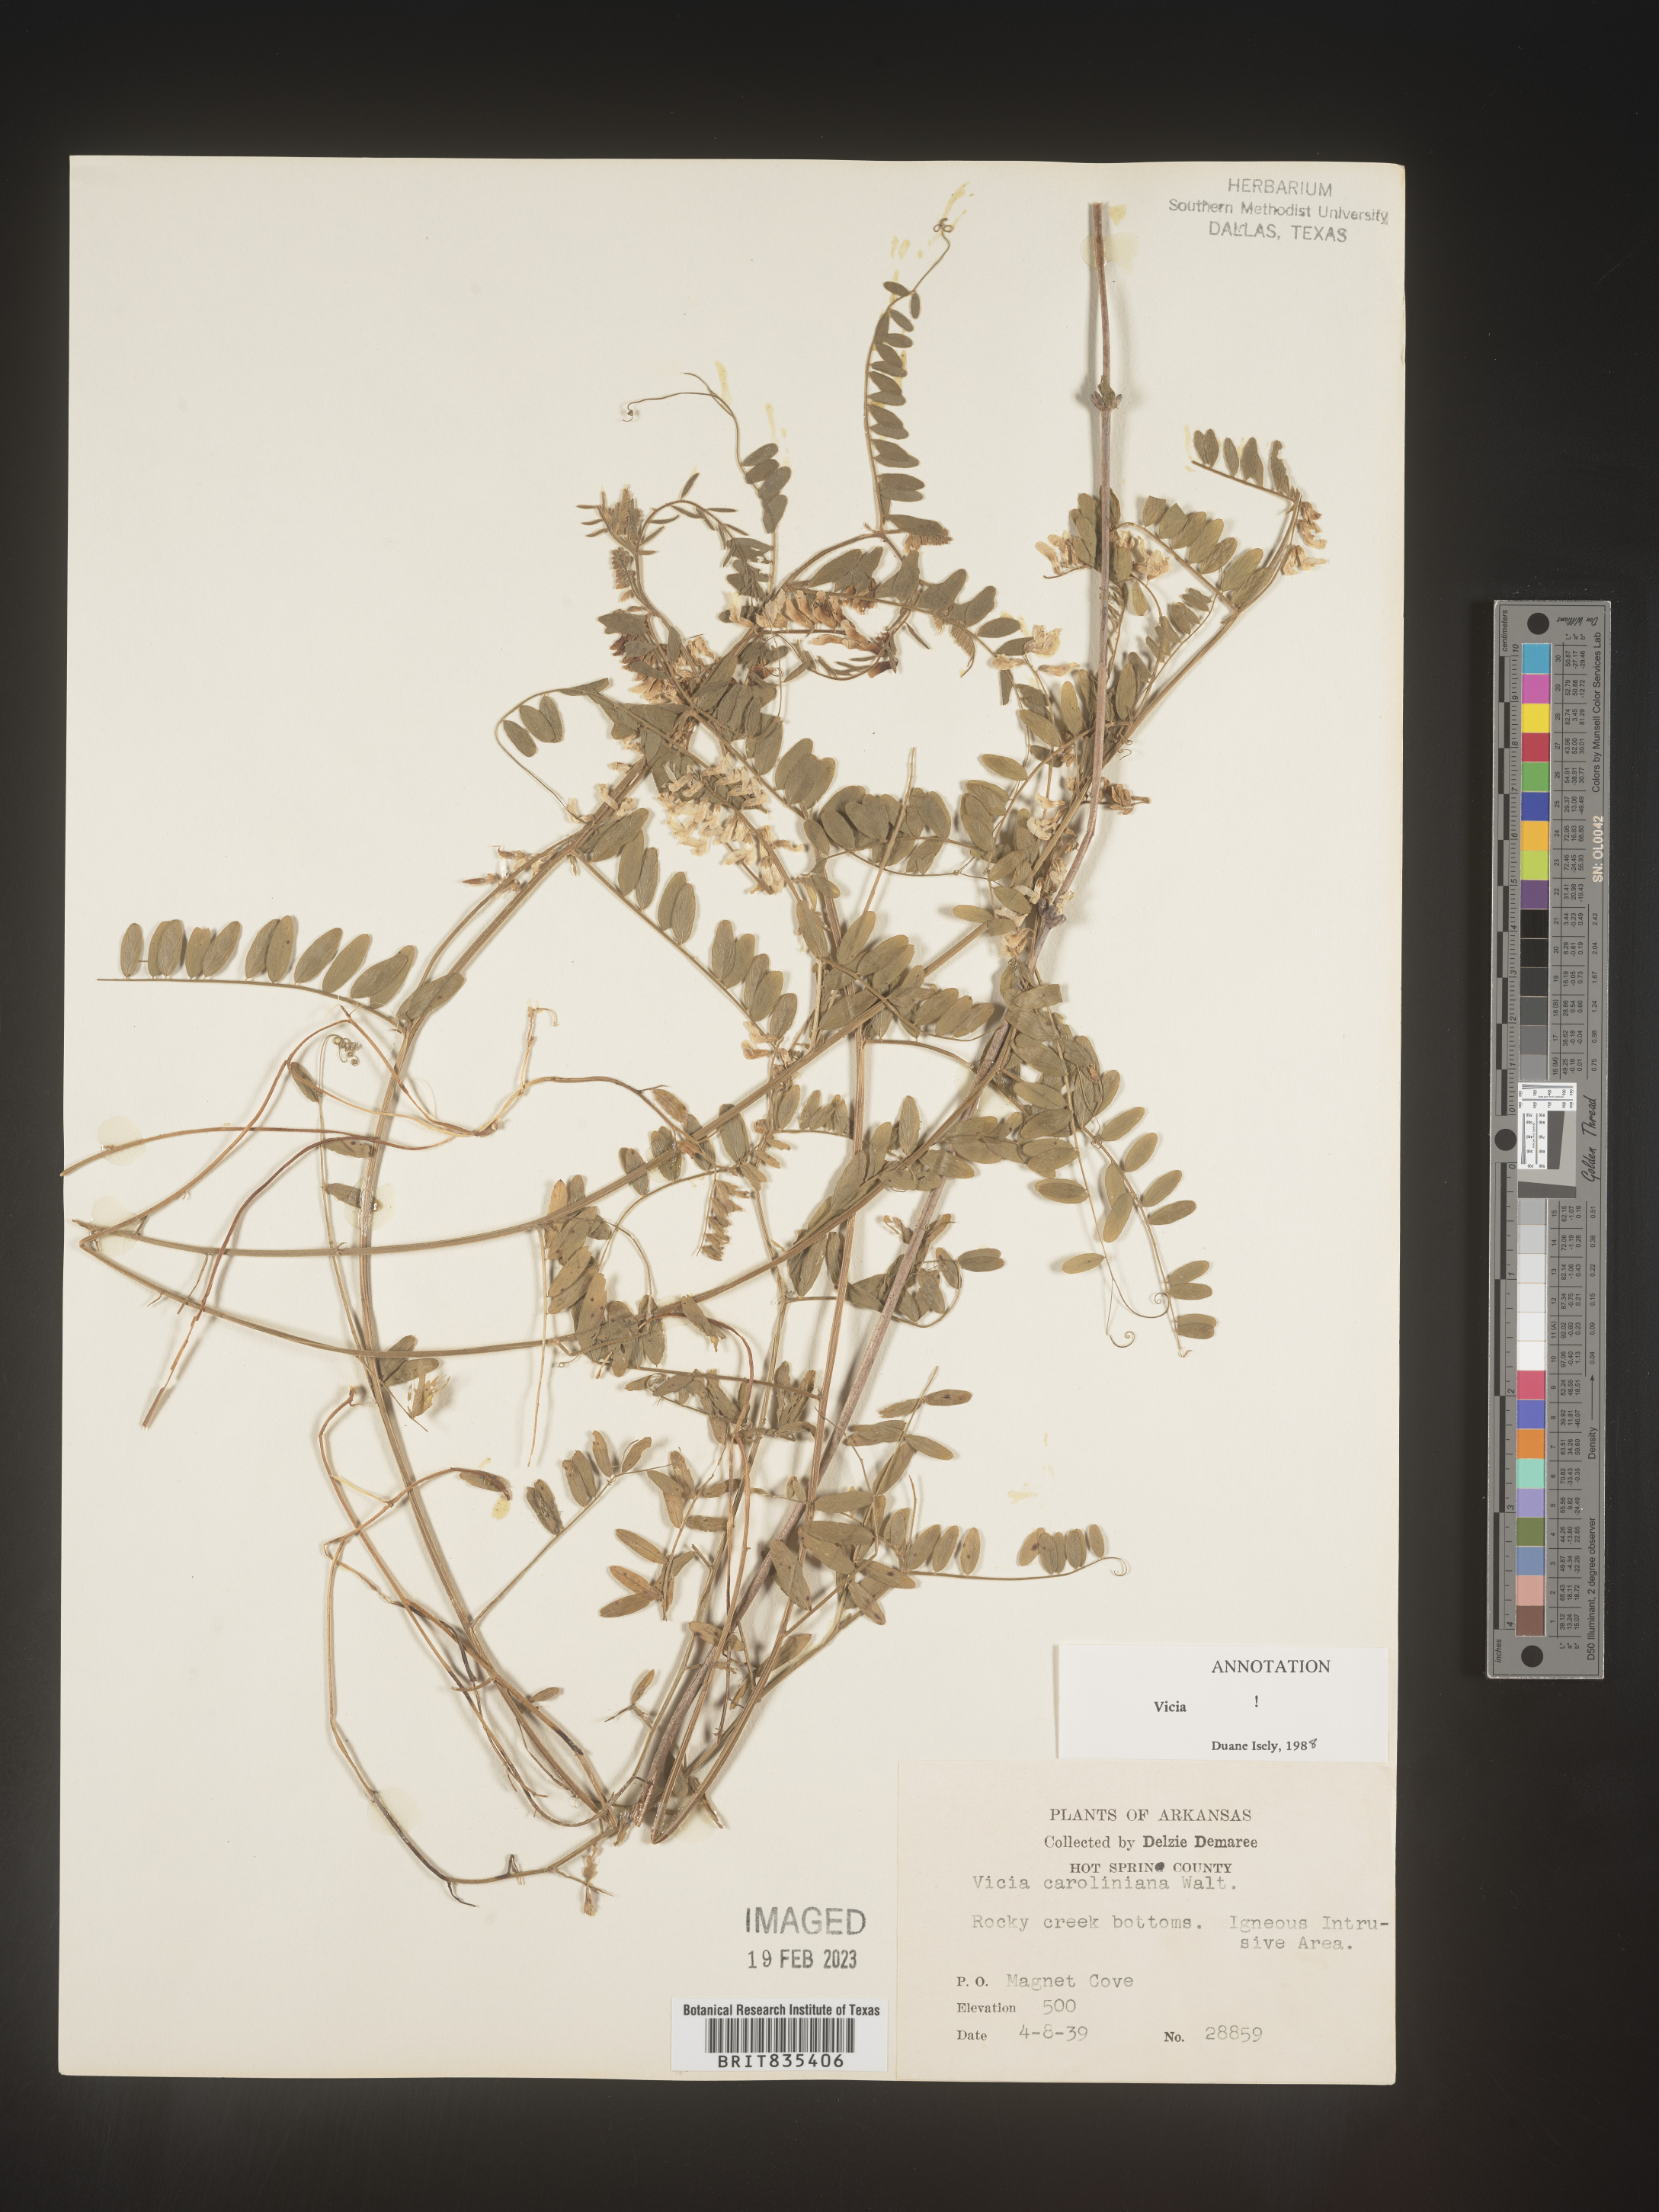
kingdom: Plantae
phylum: Tracheophyta
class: Magnoliopsida
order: Fabales
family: Fabaceae
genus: Vicia
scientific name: Vicia caroliniana
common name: Carolina vetch
